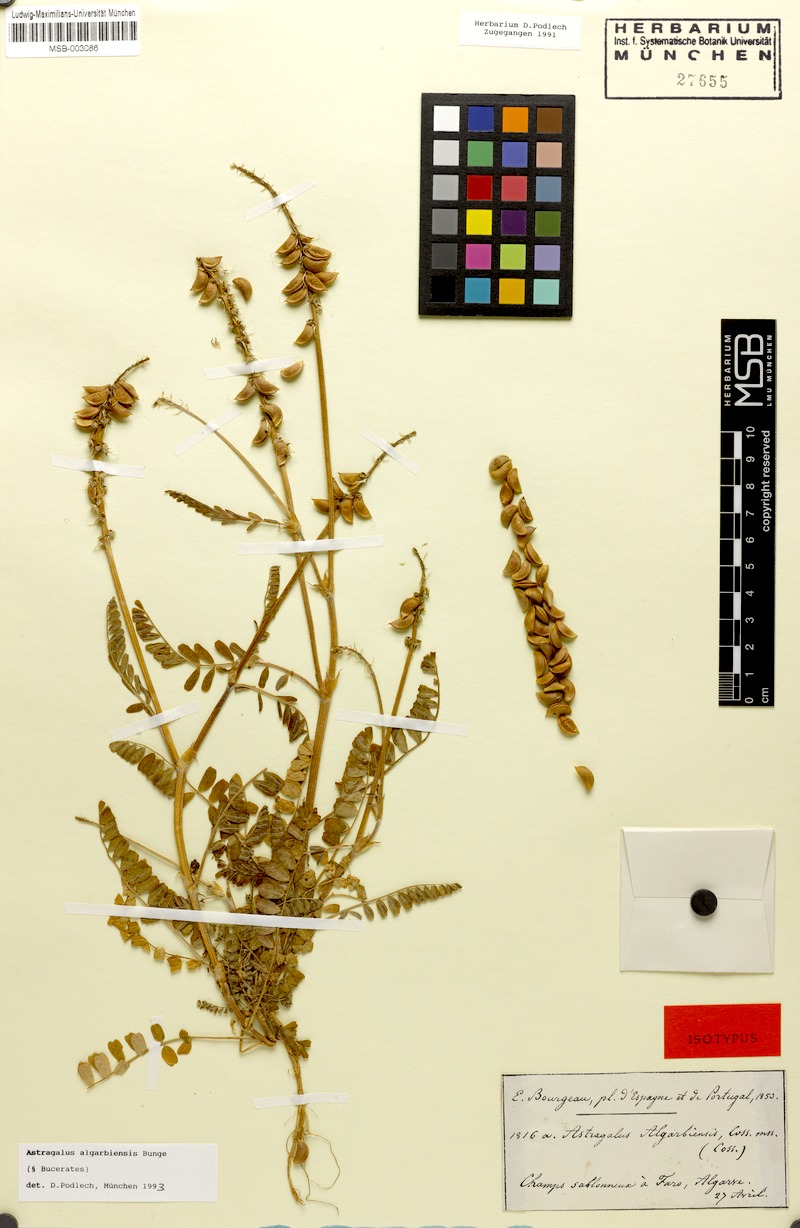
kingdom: Plantae
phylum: Tracheophyta
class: Magnoliopsida
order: Fabales
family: Fabaceae
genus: Astragalus
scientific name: Astragalus algarbiensis
